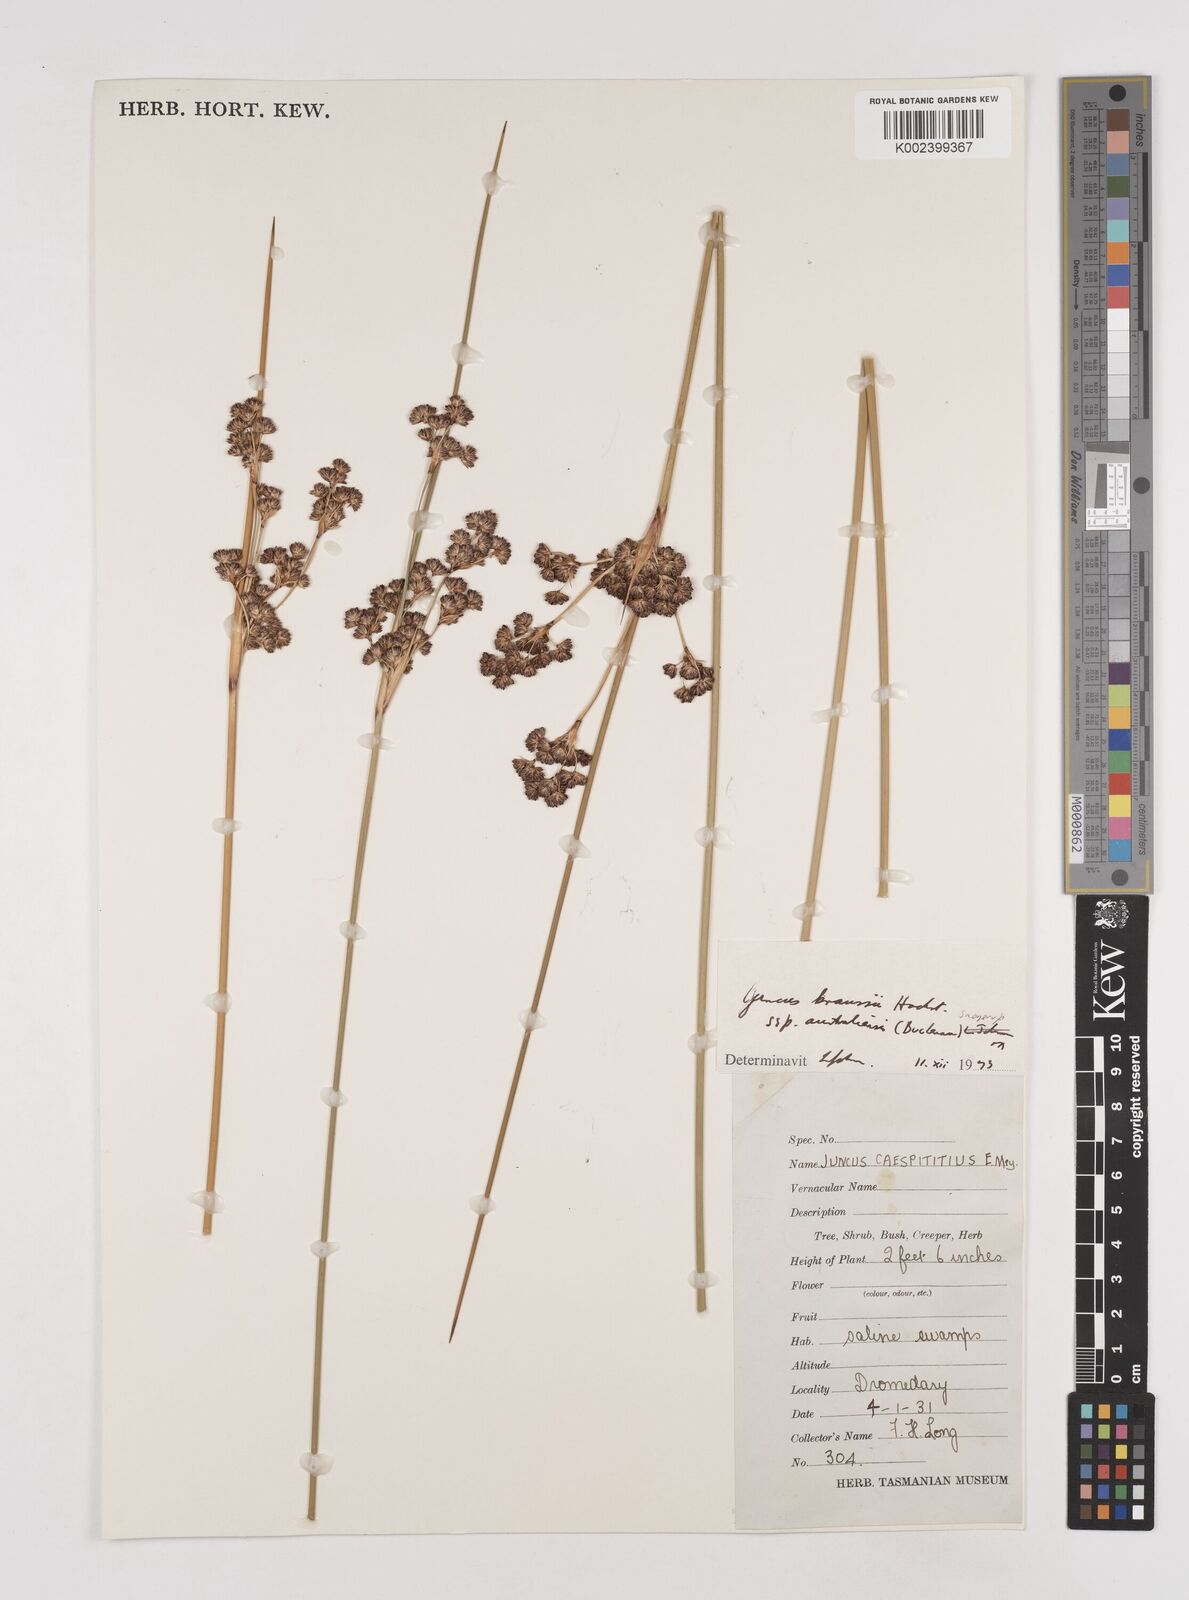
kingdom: Plantae
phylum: Tracheophyta
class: Liliopsida
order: Poales
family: Juncaceae
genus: Juncus
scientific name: Juncus kraussii
